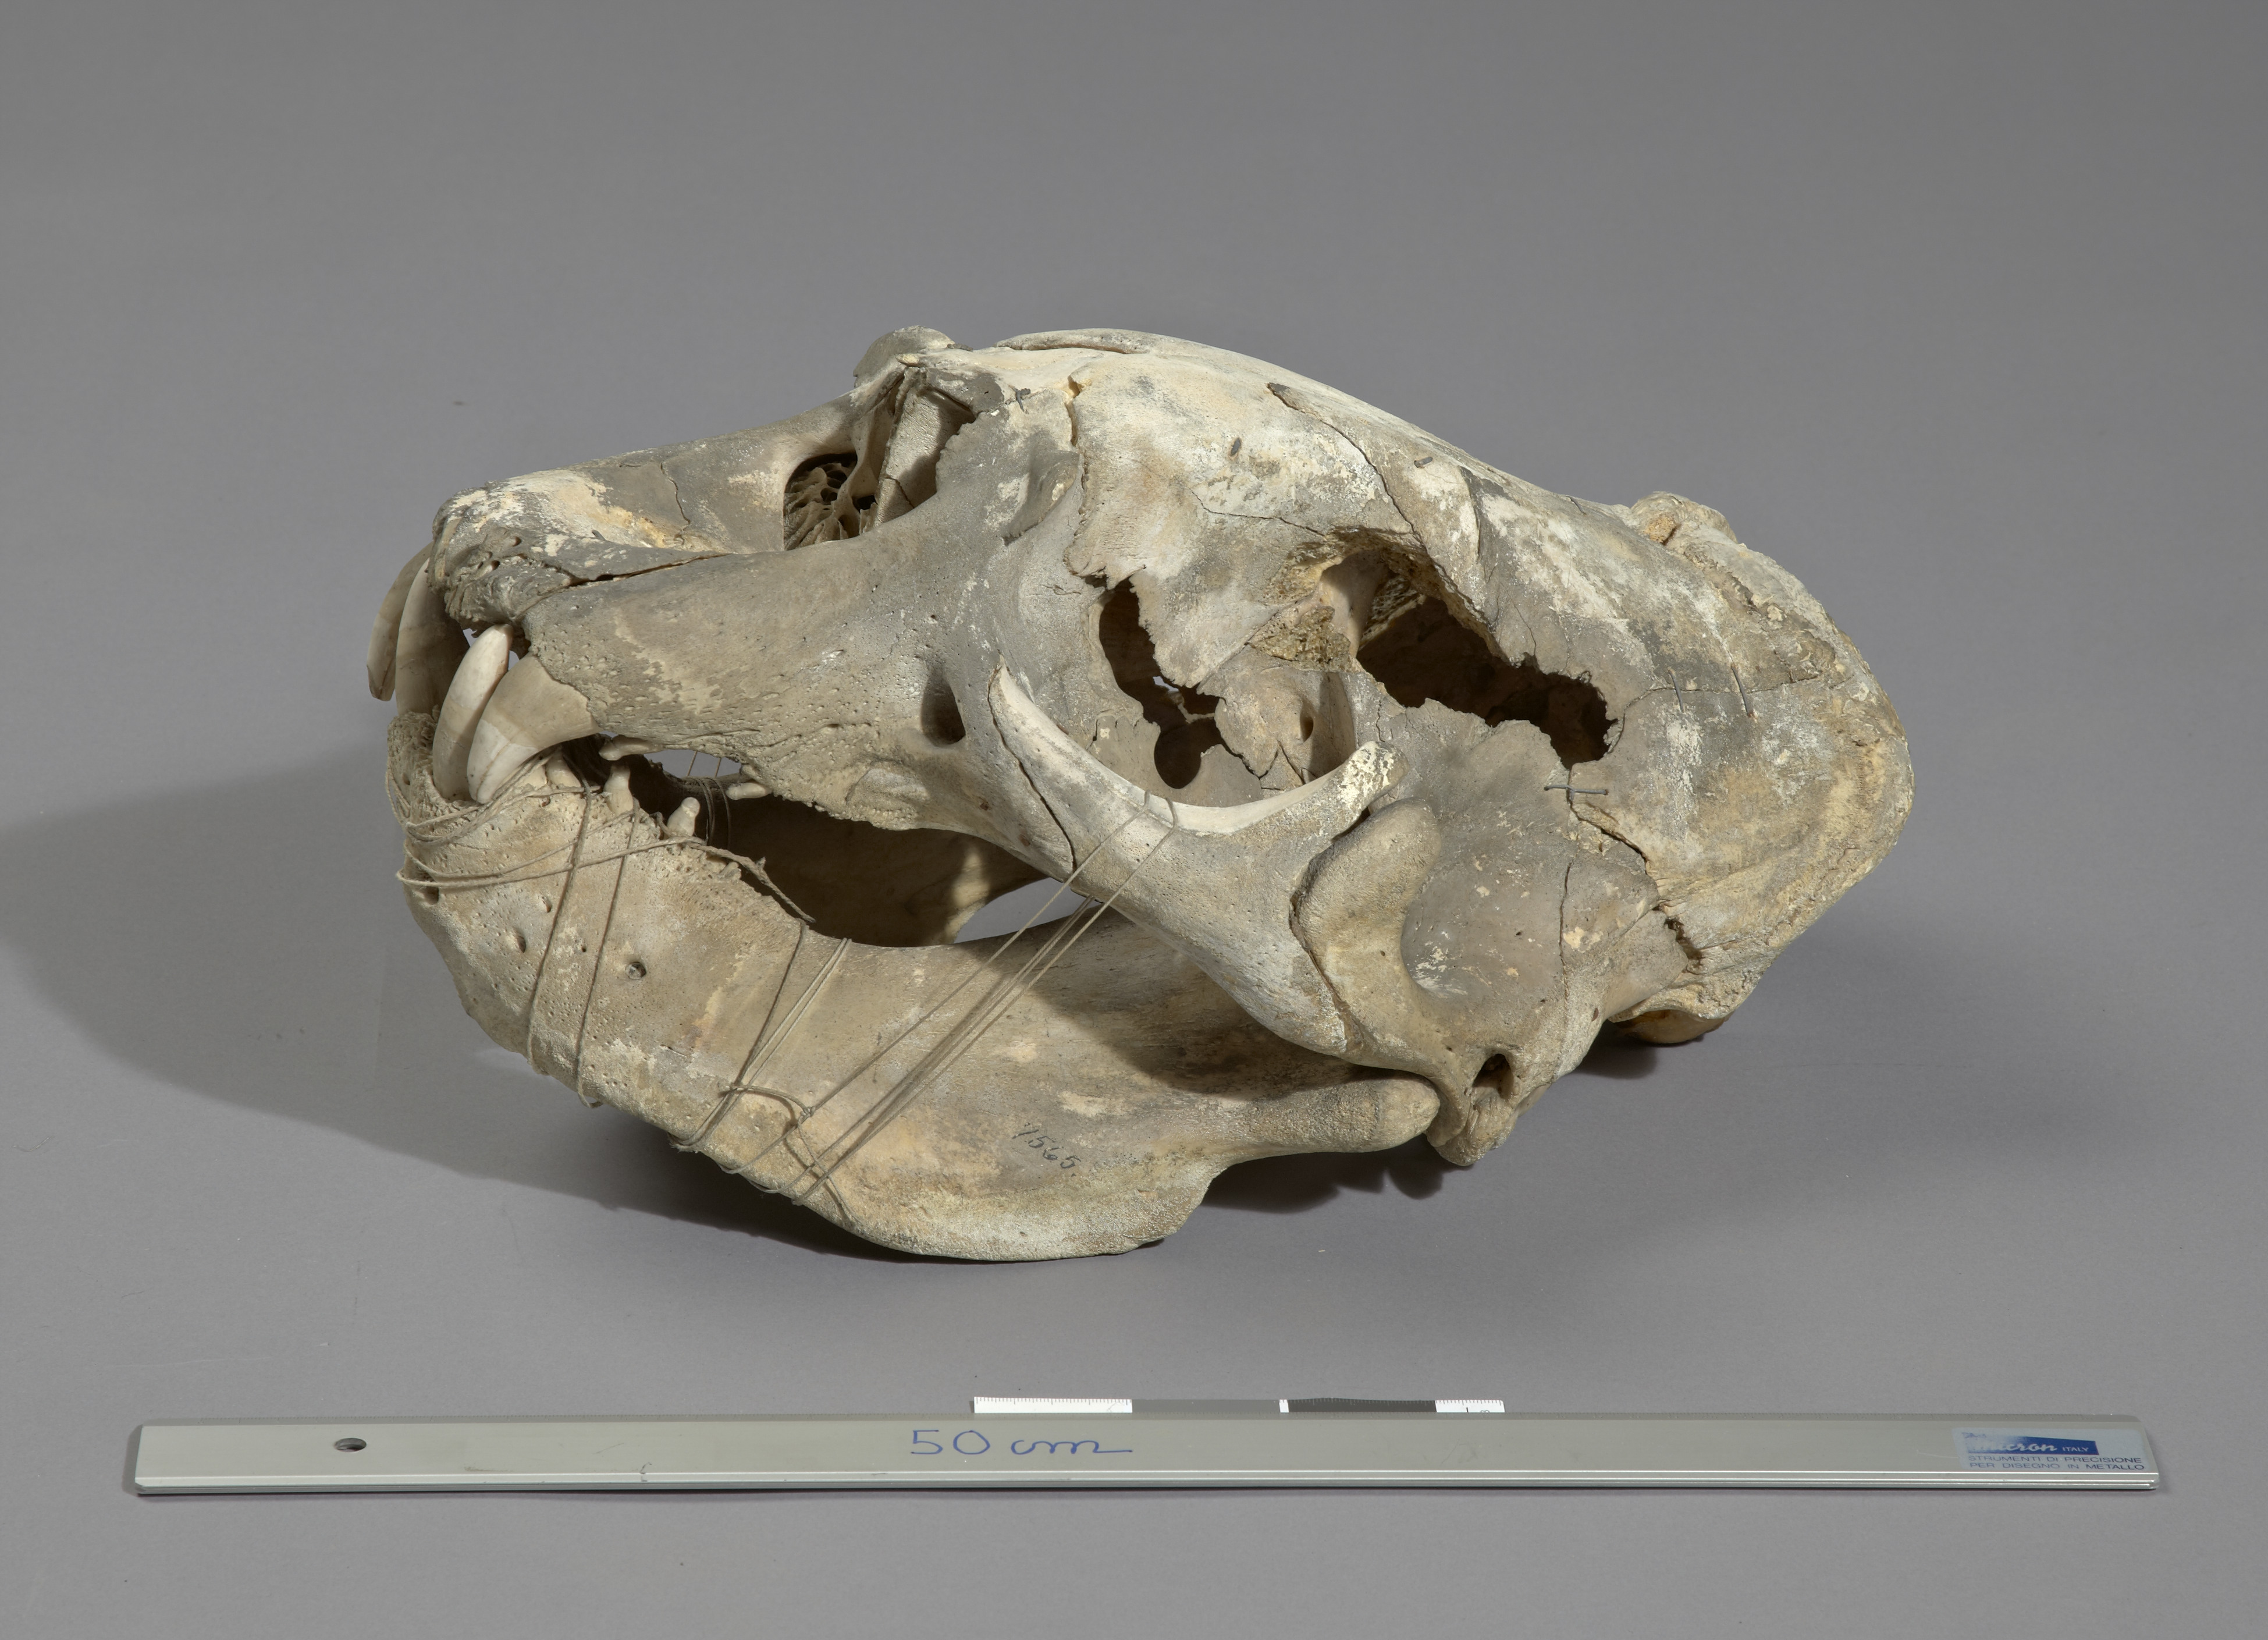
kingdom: Animalia
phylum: Chordata
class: Mammalia
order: Carnivora
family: Phocidae
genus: Mirounga
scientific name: Mirounga
